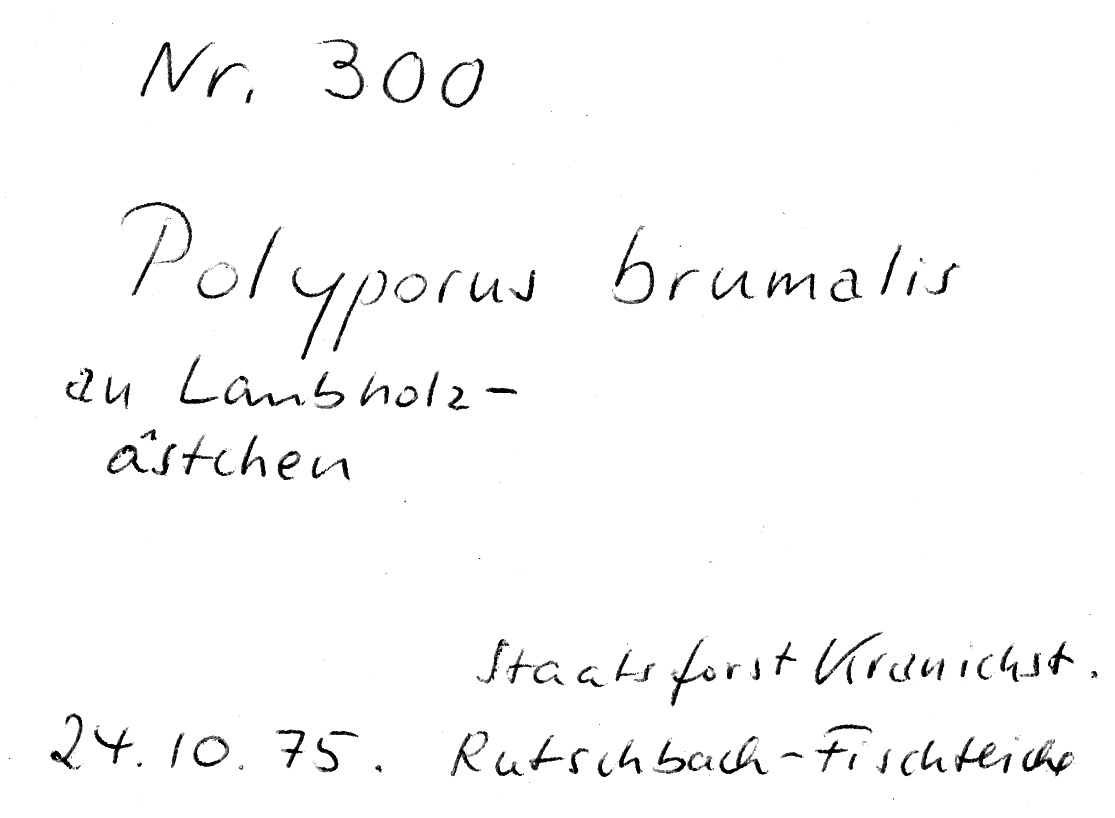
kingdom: Fungi
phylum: Basidiomycota
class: Agaricomycetes
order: Polyporales
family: Polyporaceae
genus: Lentinus
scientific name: Lentinus brumalis
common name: Winter polypore
